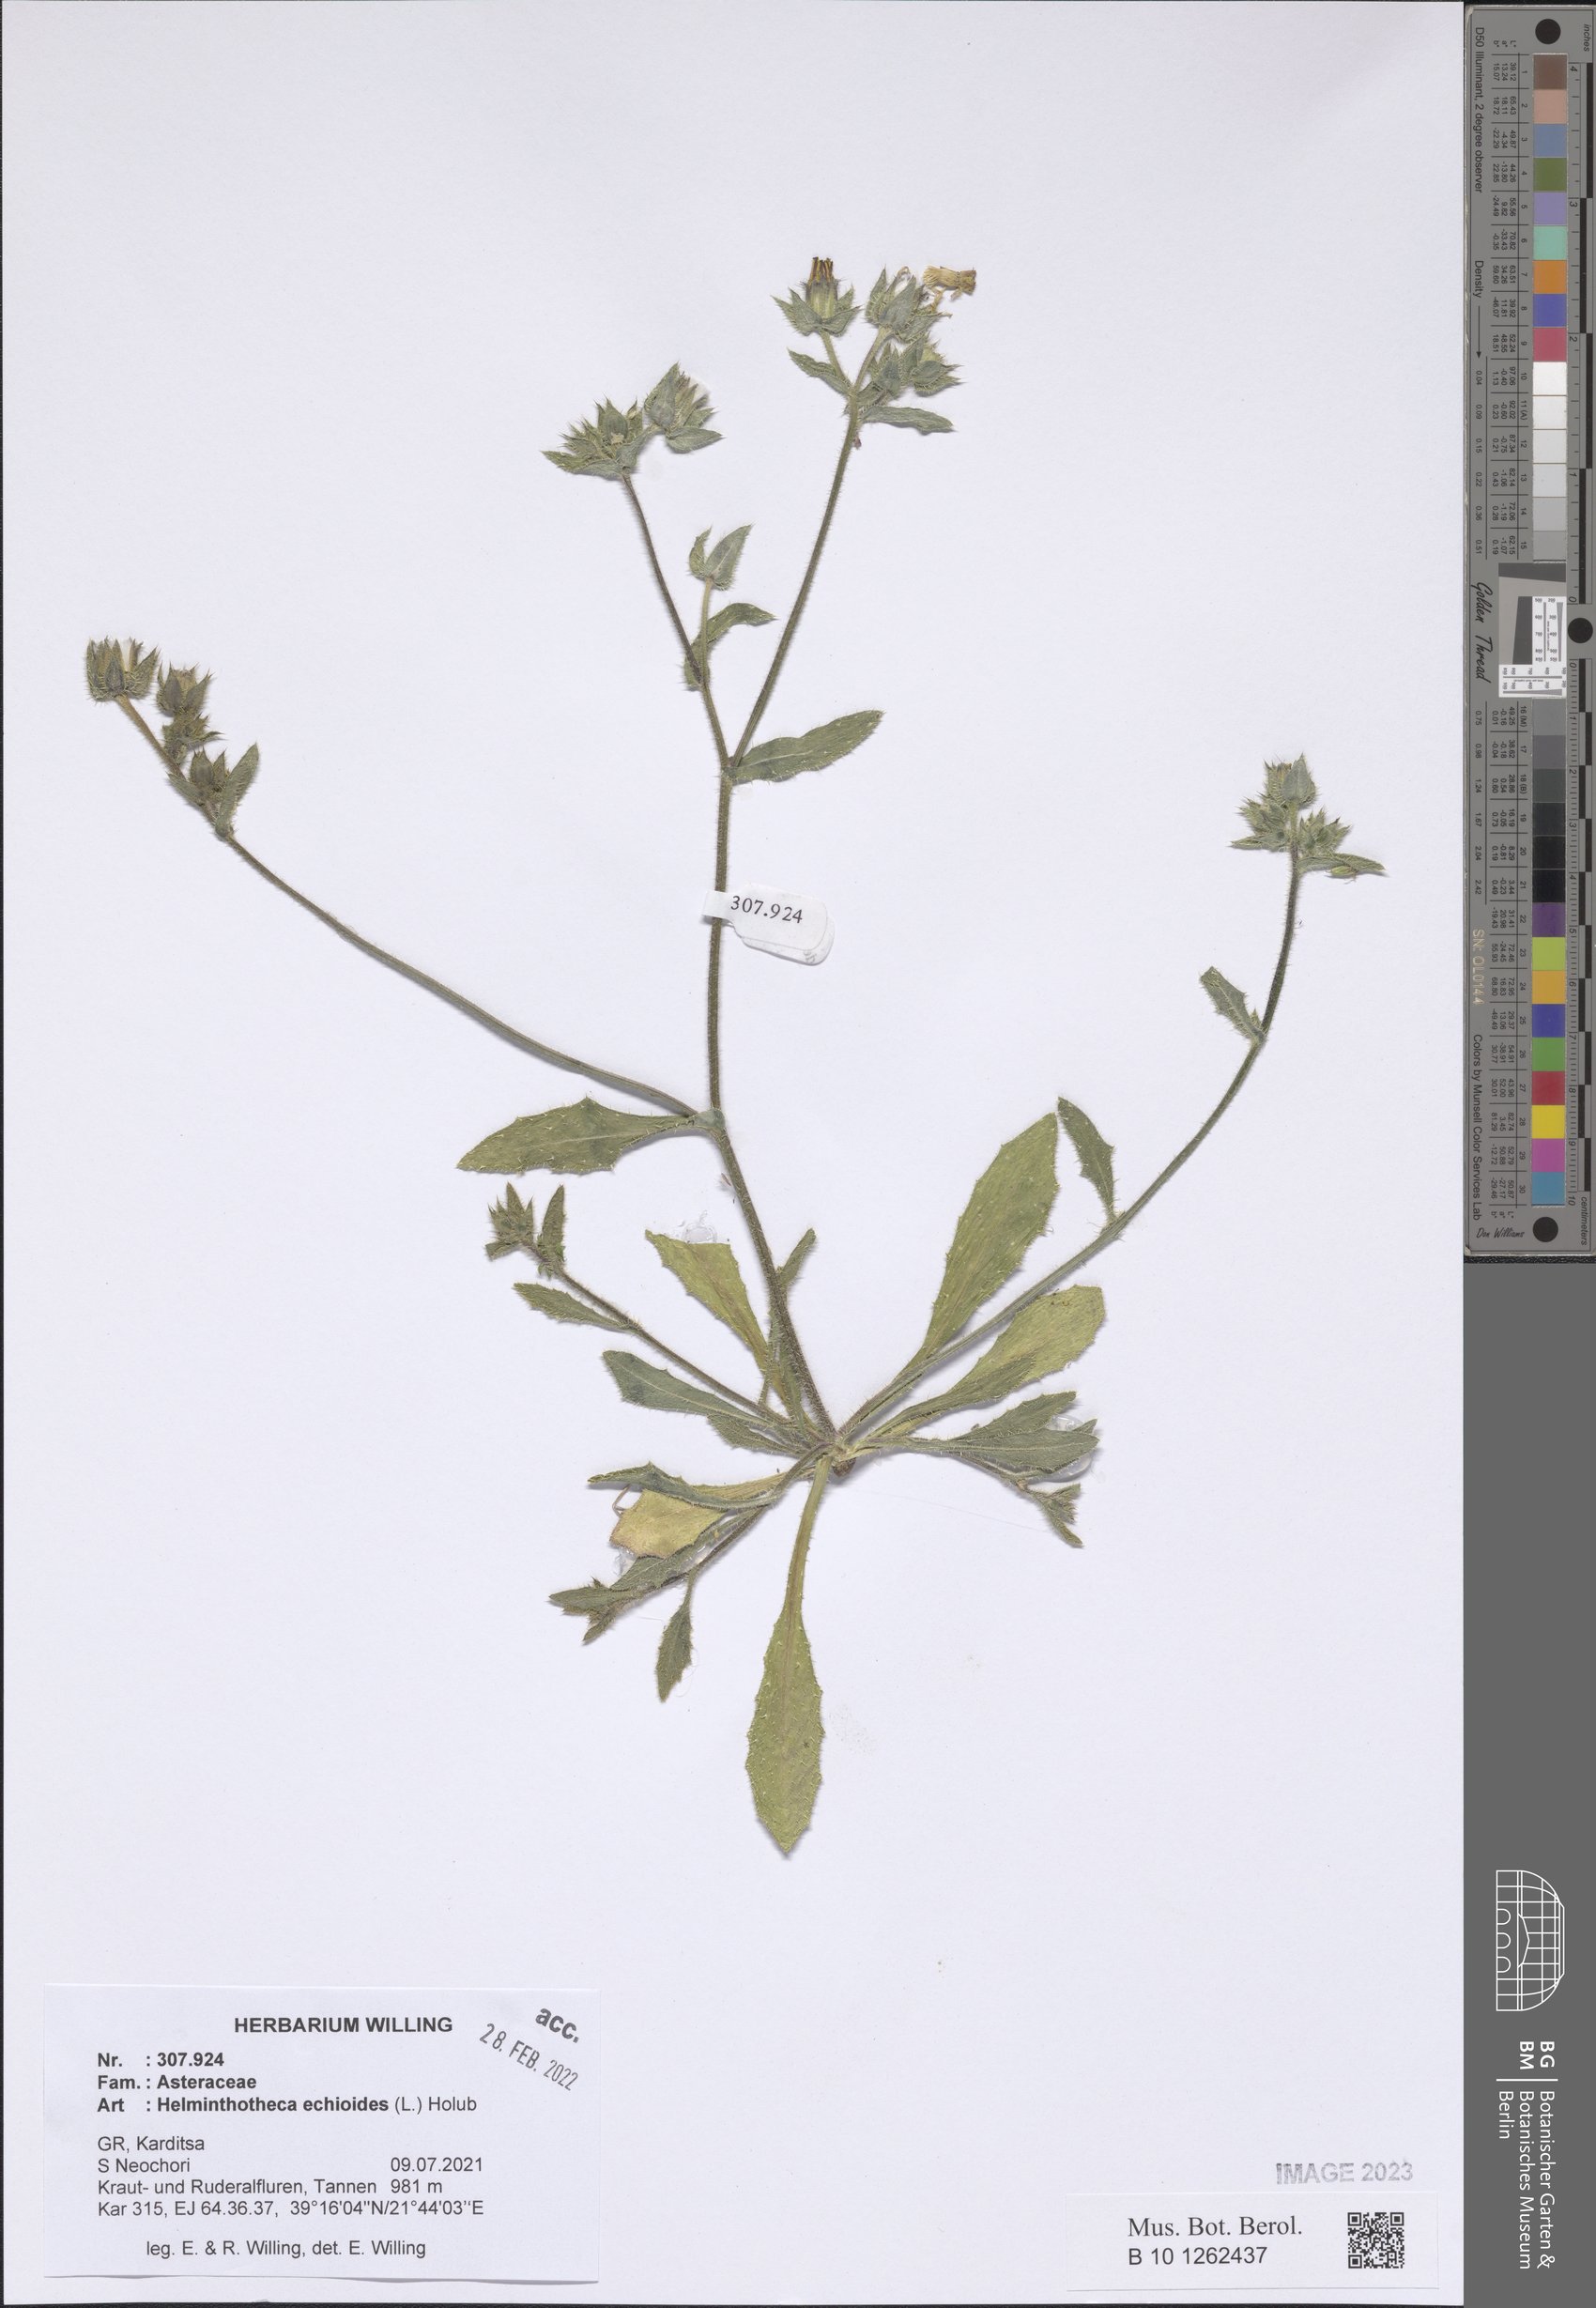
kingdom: Plantae
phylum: Tracheophyta
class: Magnoliopsida
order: Asterales
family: Asteraceae
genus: Helminthotheca
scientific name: Helminthotheca echioides
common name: Ox-tongue
